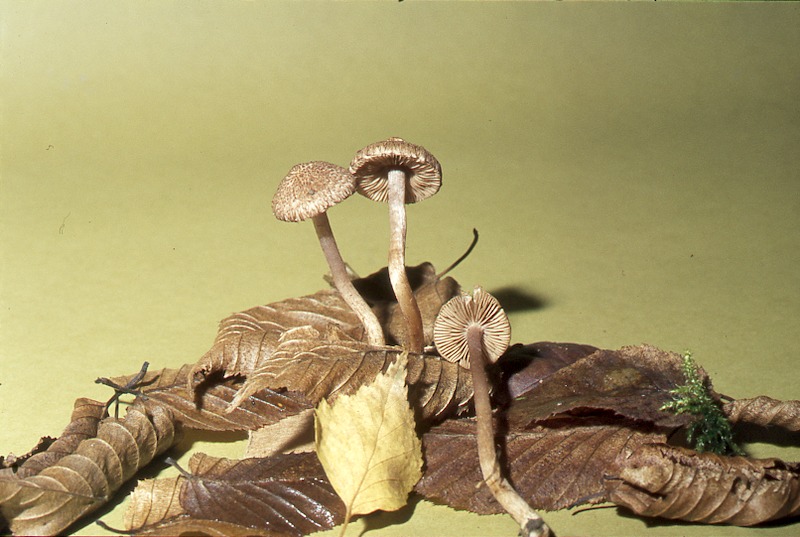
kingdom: Fungi
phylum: Basidiomycota
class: Agaricomycetes
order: Agaricales
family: Inocybaceae
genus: Inocybe
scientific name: Inocybe cincinnata
